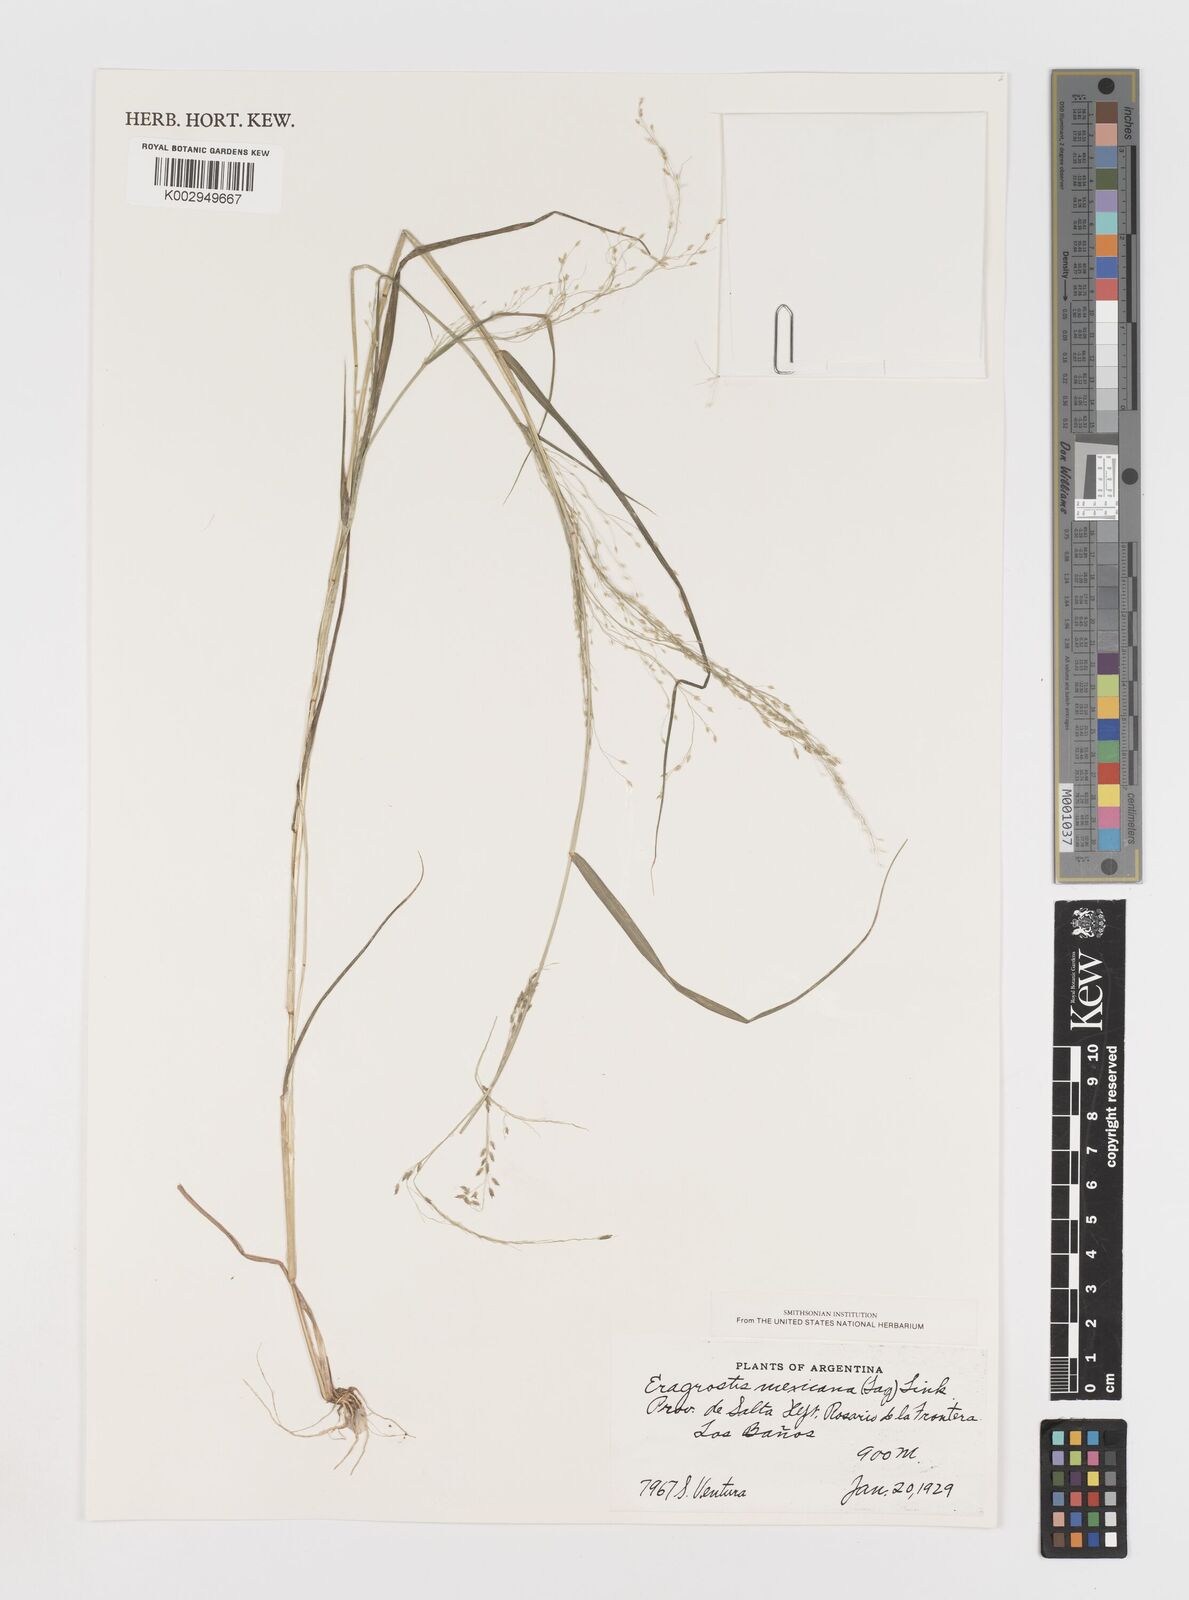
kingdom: Plantae
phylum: Tracheophyta
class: Liliopsida
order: Poales
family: Poaceae
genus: Eragrostis
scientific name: Eragrostis mexicana
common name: Mexican love grass
